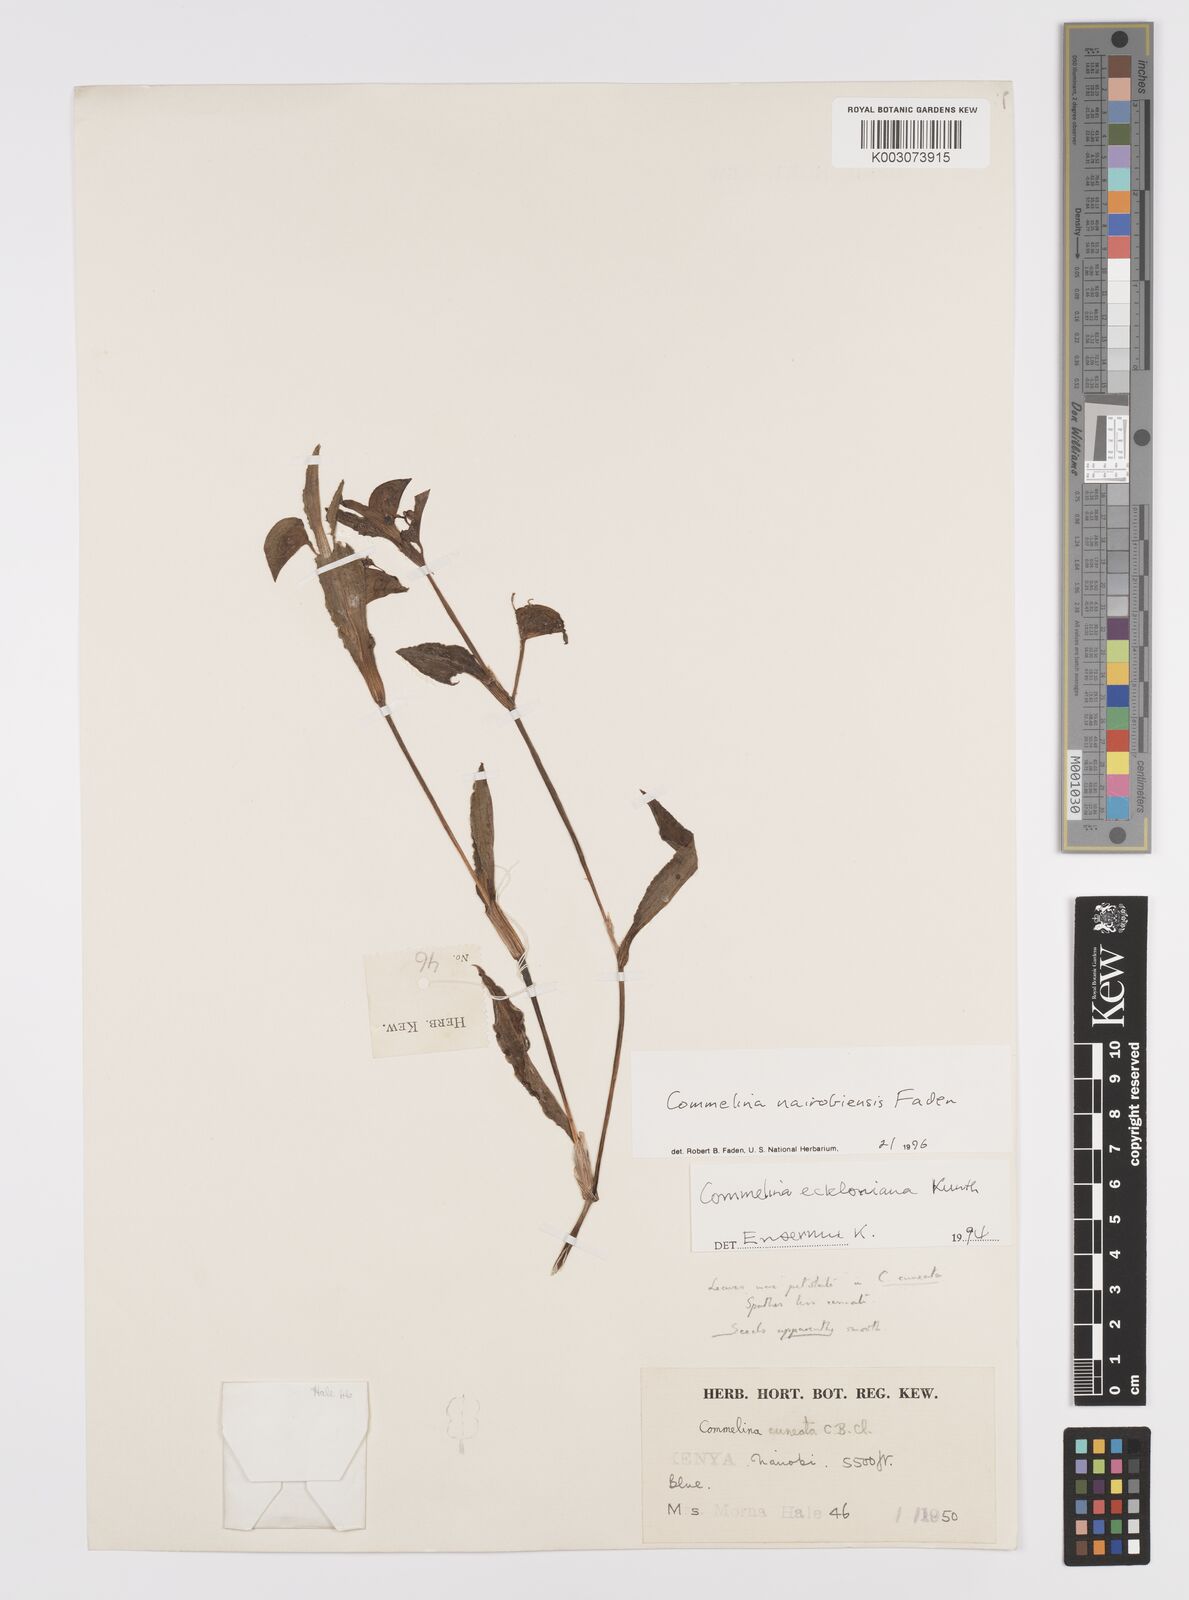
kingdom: Plantae
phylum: Tracheophyta
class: Liliopsida
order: Commelinales
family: Commelinaceae
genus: Commelina
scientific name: Commelina eckloniana
